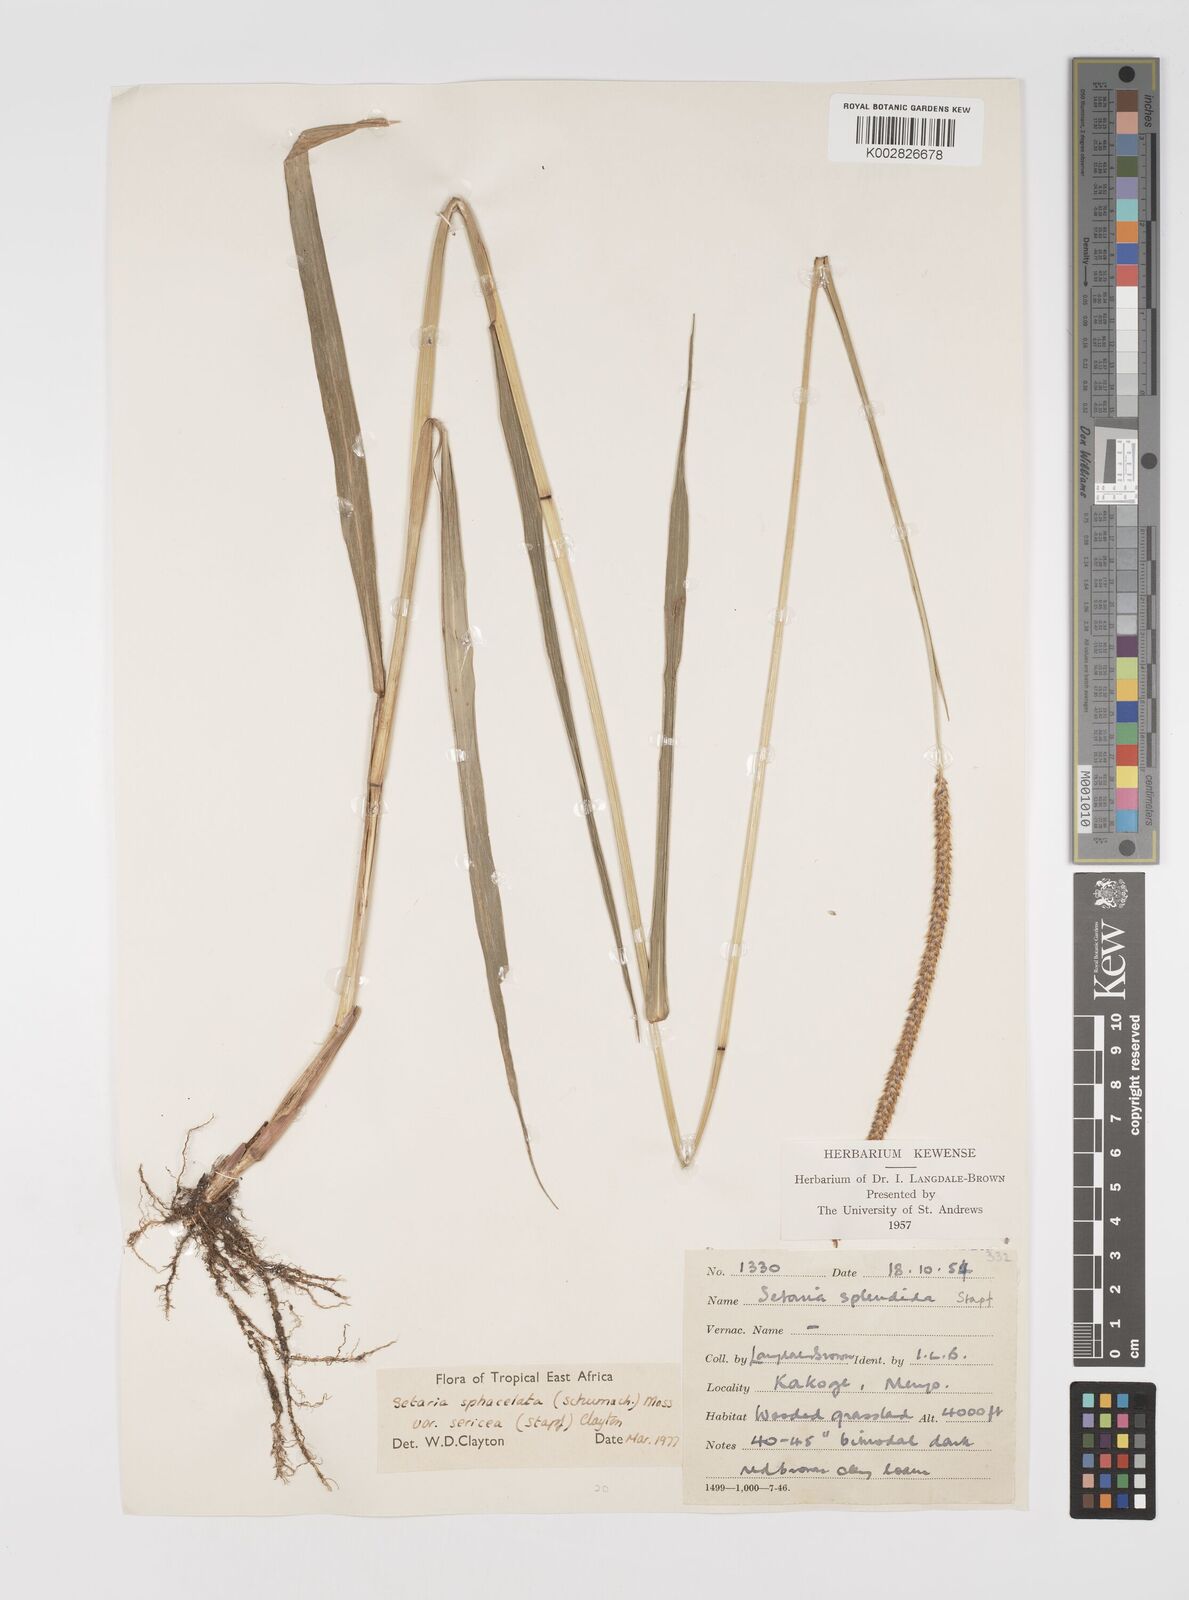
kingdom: Plantae
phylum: Tracheophyta
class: Liliopsida
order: Poales
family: Poaceae
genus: Setaria
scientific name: Setaria sphacelata
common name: African bristlegrass
